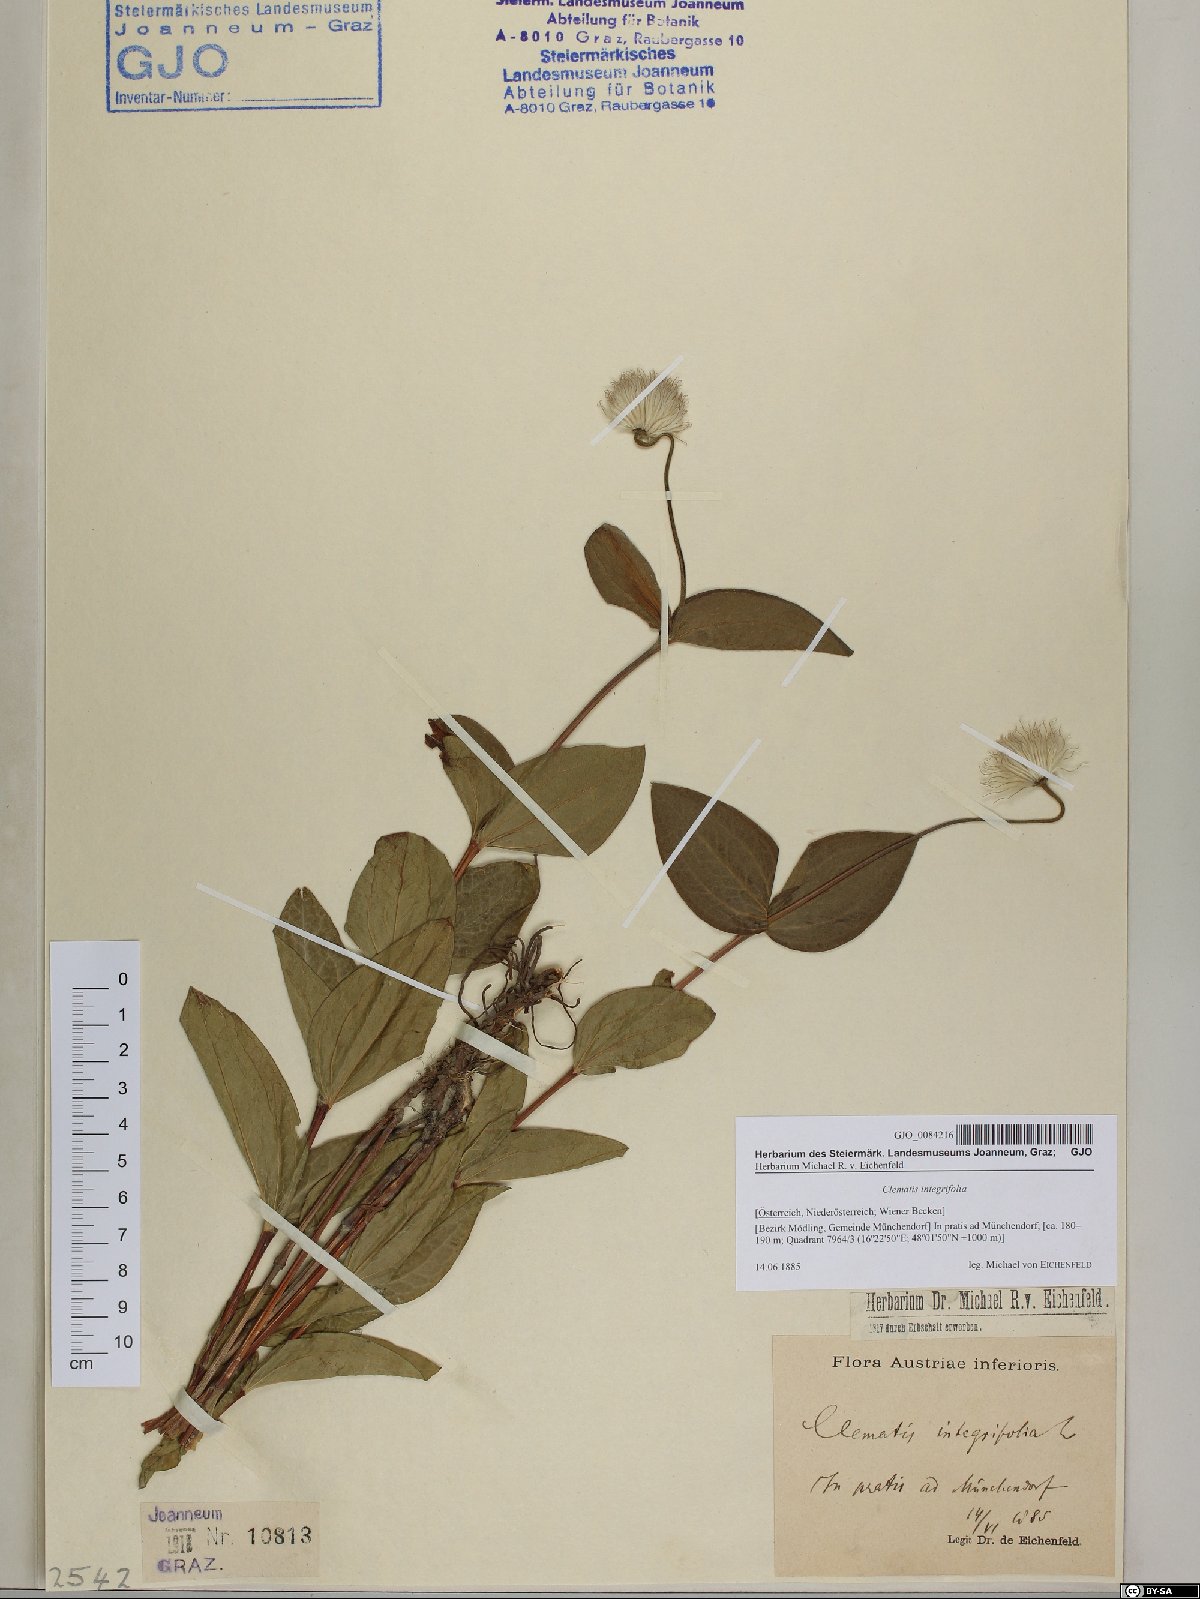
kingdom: Plantae
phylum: Tracheophyta
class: Magnoliopsida
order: Ranunculales
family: Ranunculaceae
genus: Clematis
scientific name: Clematis integrifolia
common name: Solitary clematis
